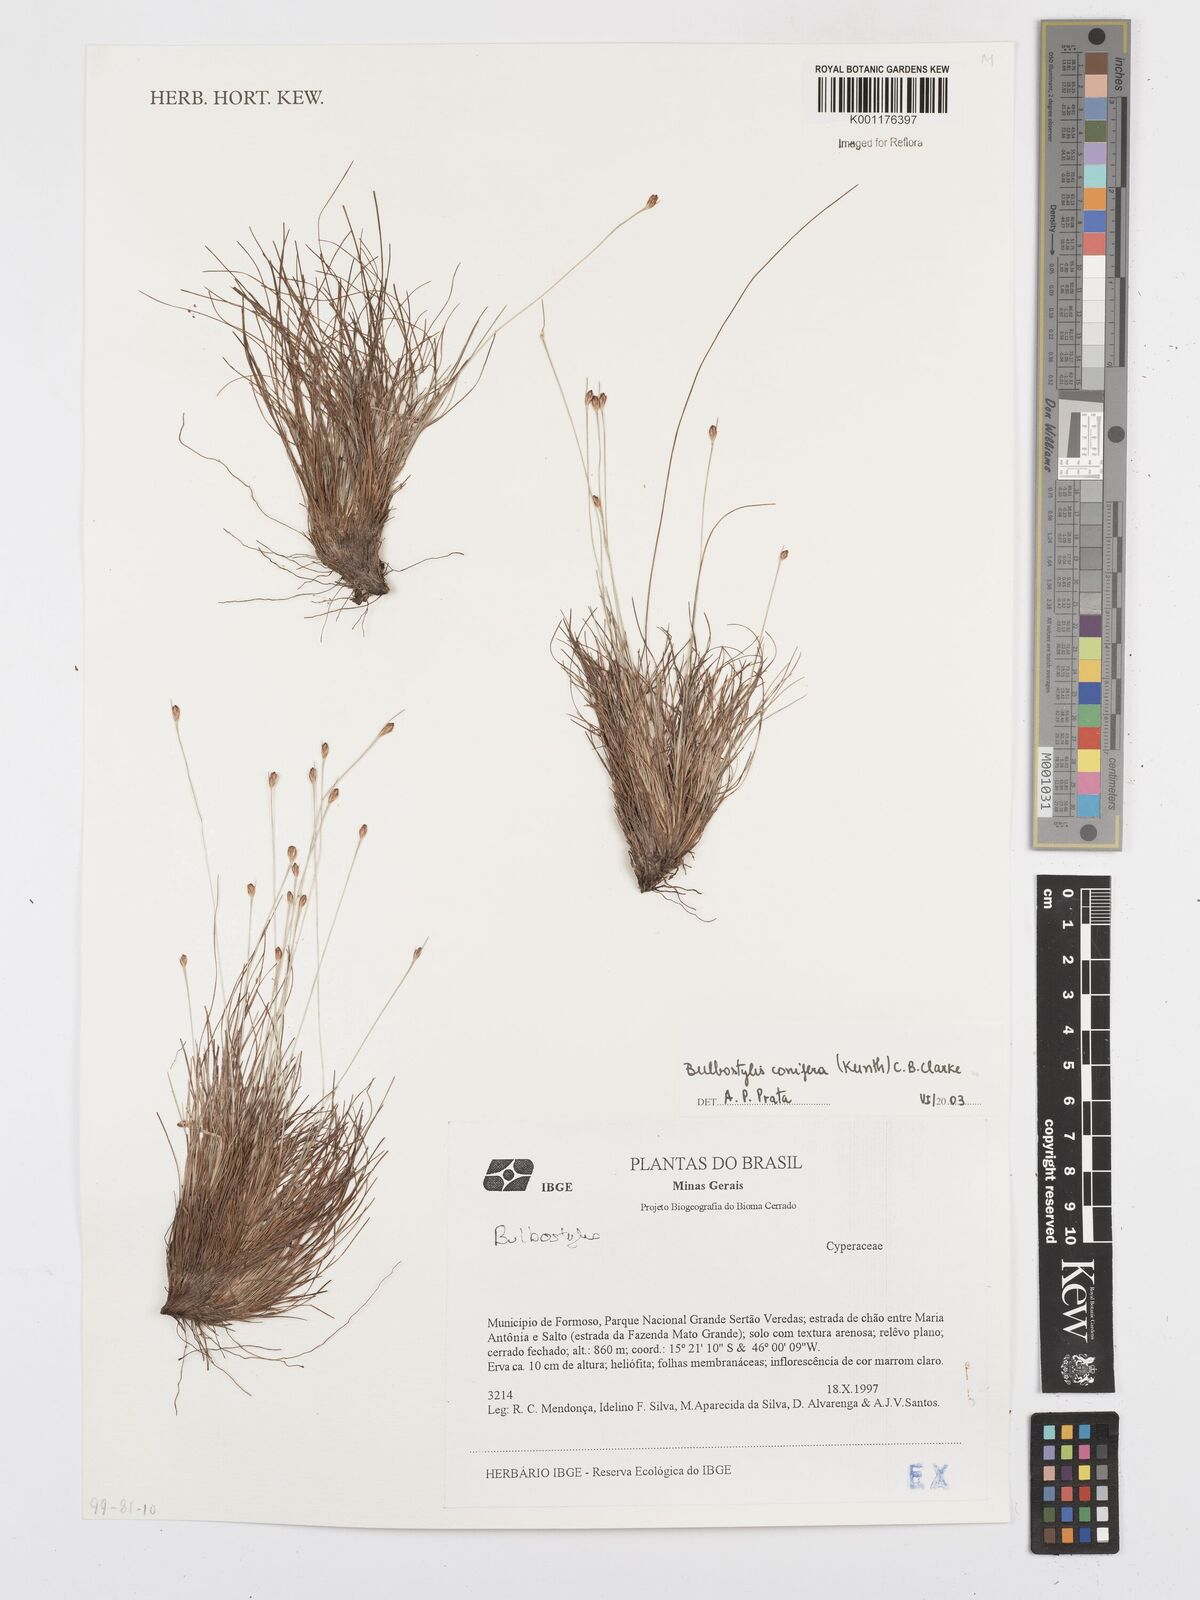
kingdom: Plantae
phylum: Tracheophyta
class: Liliopsida
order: Poales
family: Cyperaceae
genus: Bulbostylis
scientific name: Bulbostylis conifera
